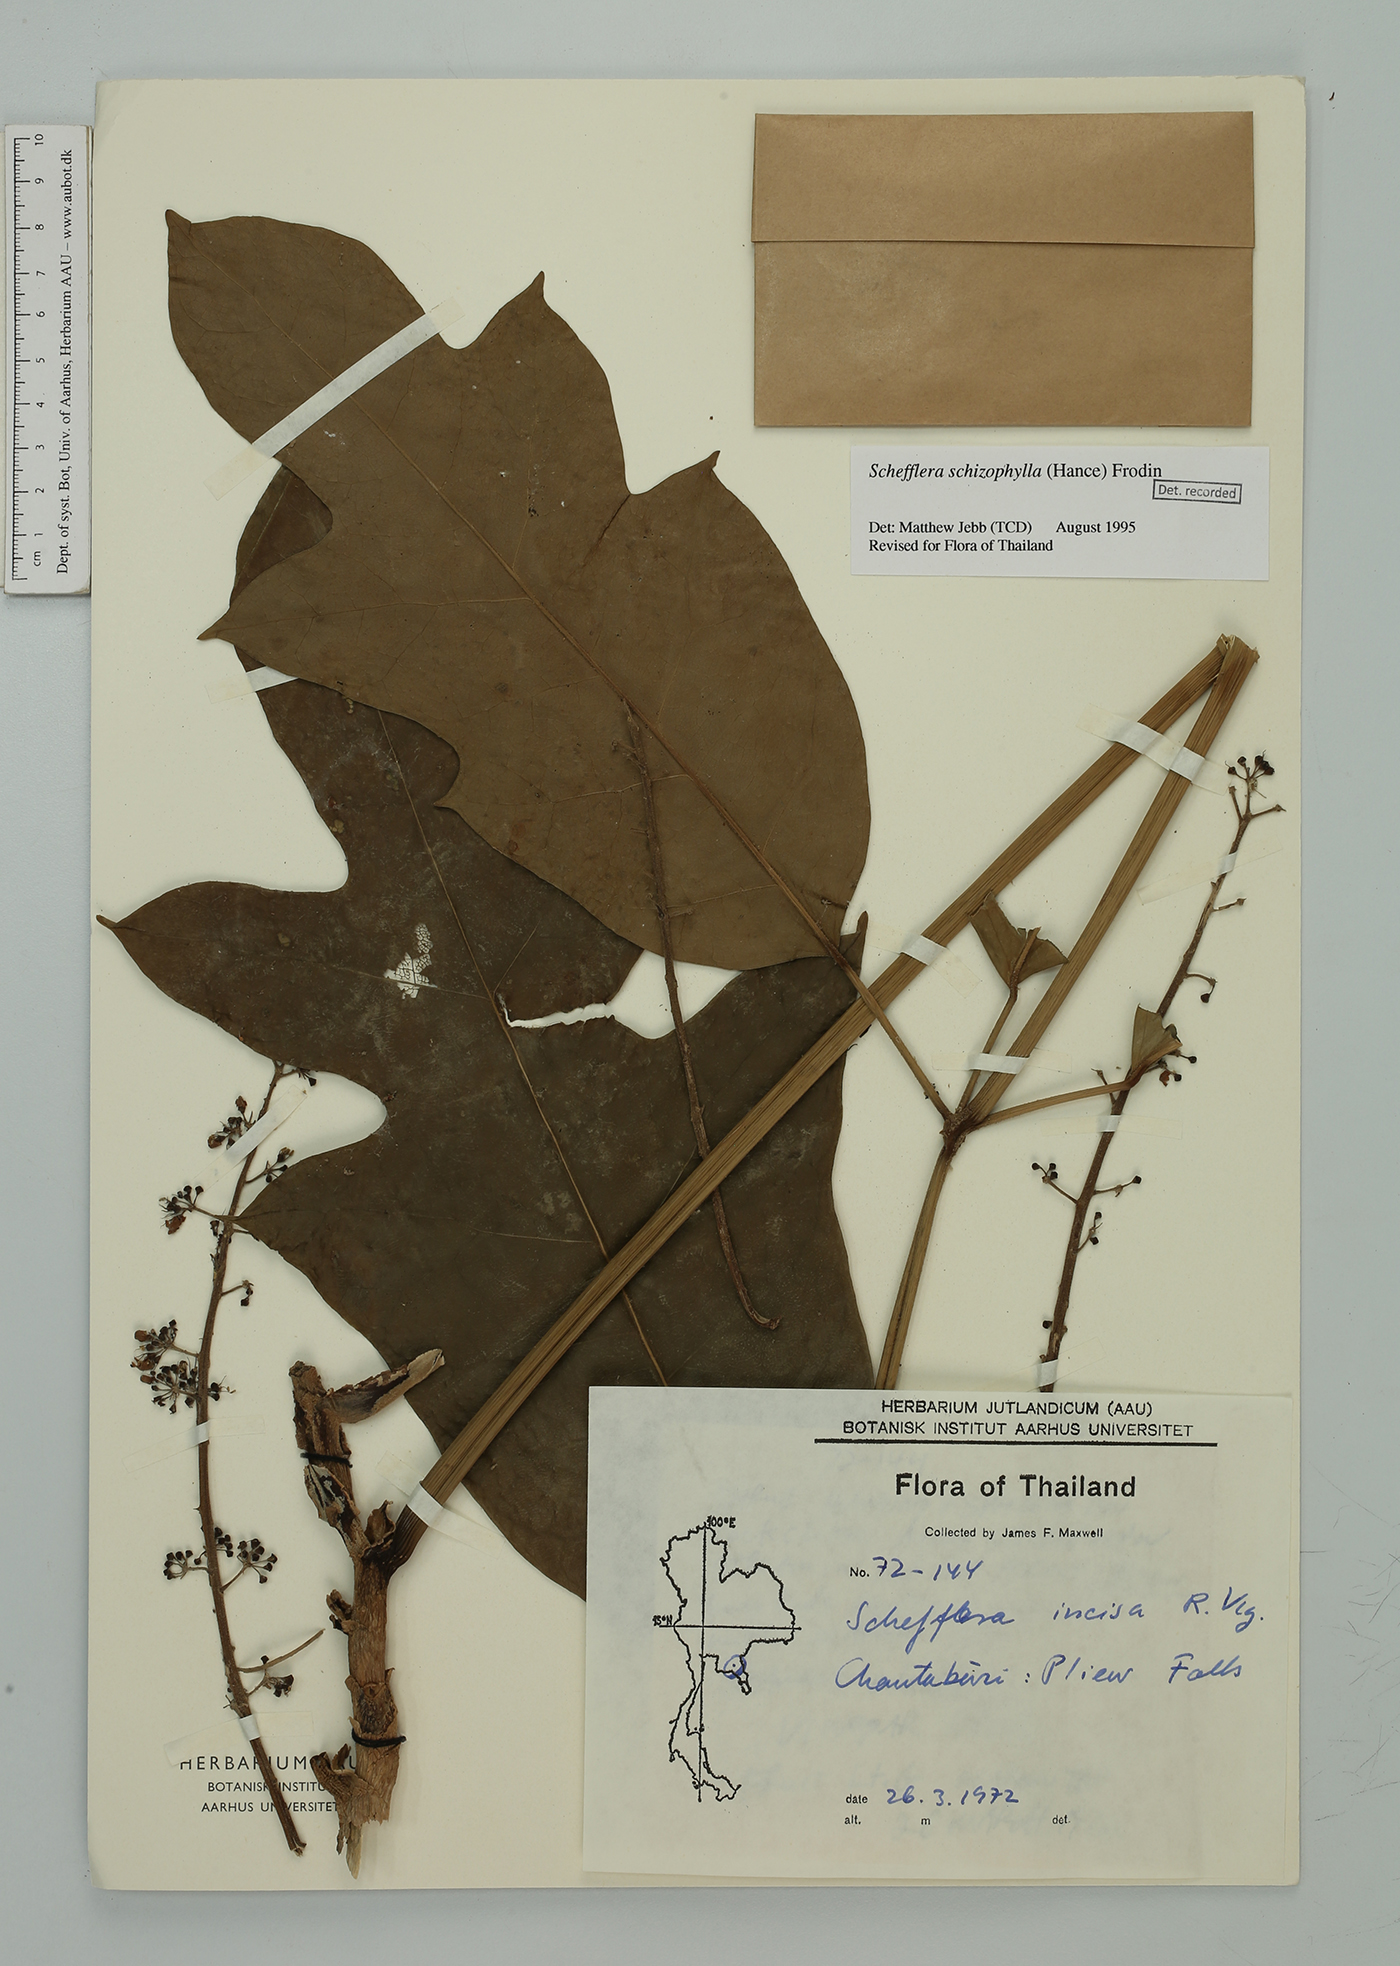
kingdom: Plantae
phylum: Tracheophyta
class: Magnoliopsida
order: Apiales
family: Araliaceae
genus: Heptapleurum
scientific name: Heptapleurum schizophyllum
